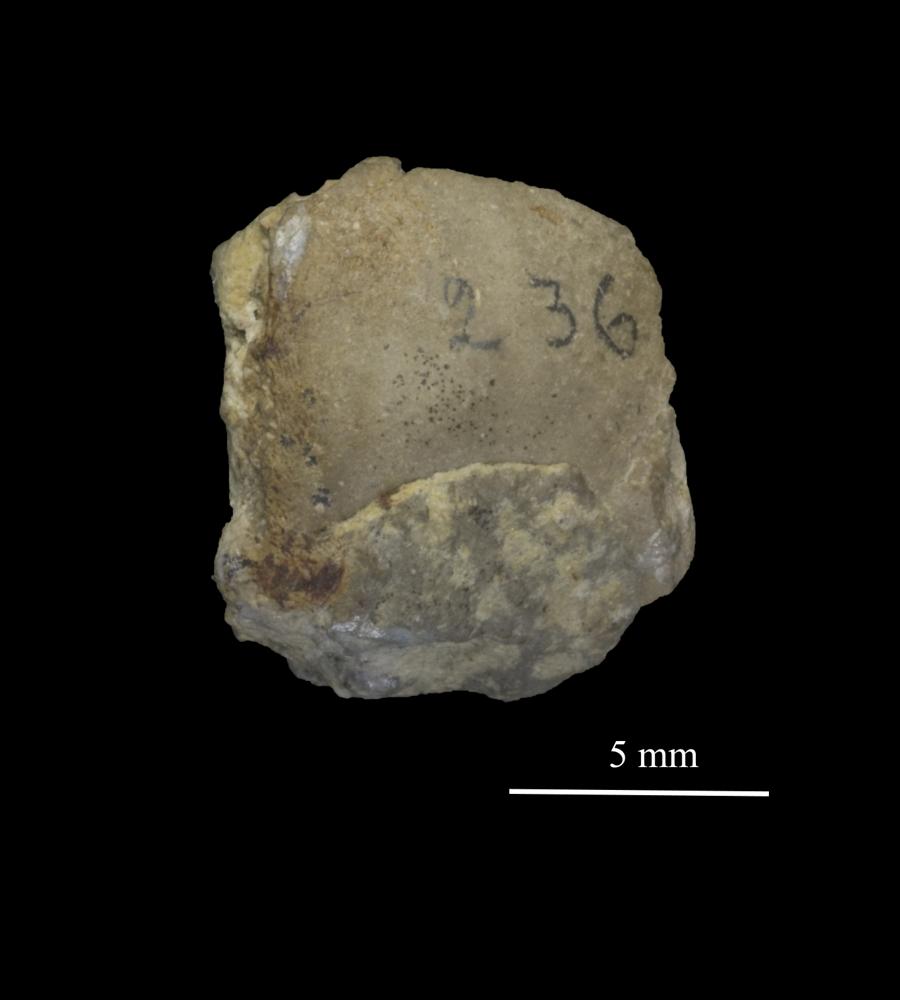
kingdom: Animalia
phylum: Mollusca
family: Bucanellidae
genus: Bucanella
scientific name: Bucanella
